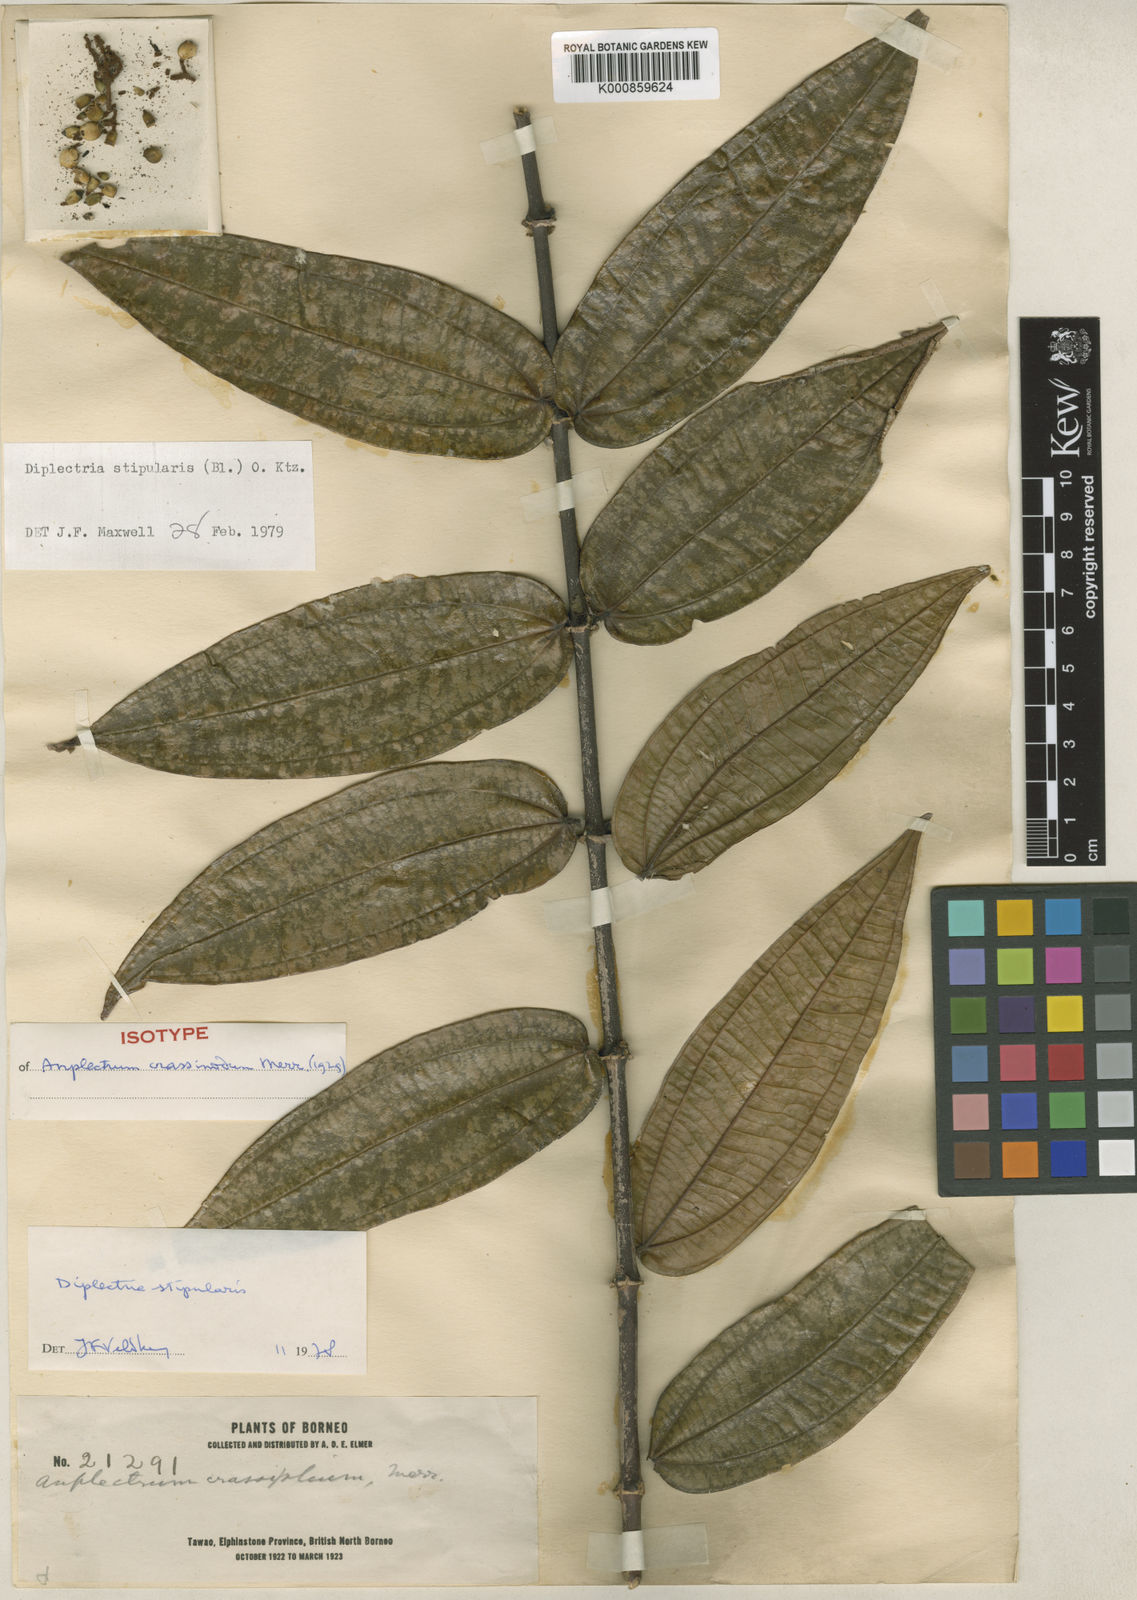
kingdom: Plantae
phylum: Tracheophyta
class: Magnoliopsida
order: Myrtales
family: Melastomataceae
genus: Diplectria
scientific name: Diplectria stipularis
